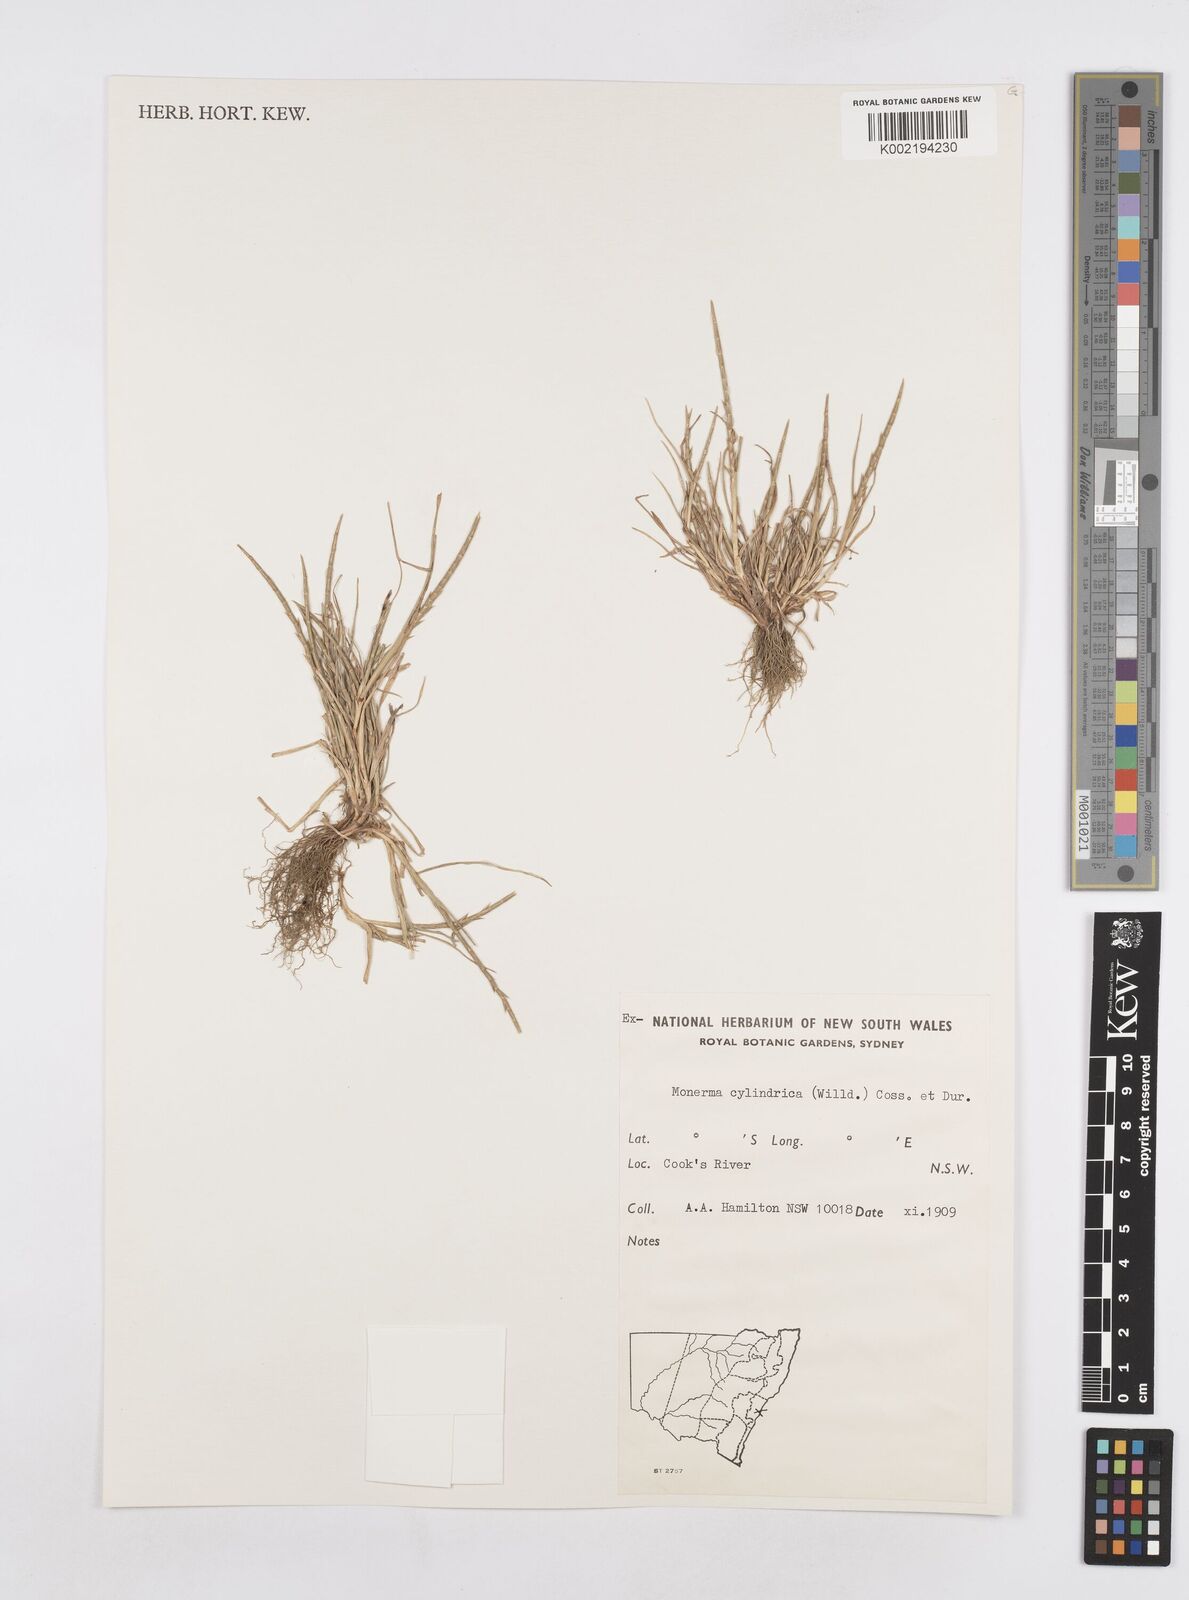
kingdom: Plantae
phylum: Tracheophyta
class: Liliopsida
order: Poales
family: Poaceae
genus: Parapholis
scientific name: Parapholis cylindrica
